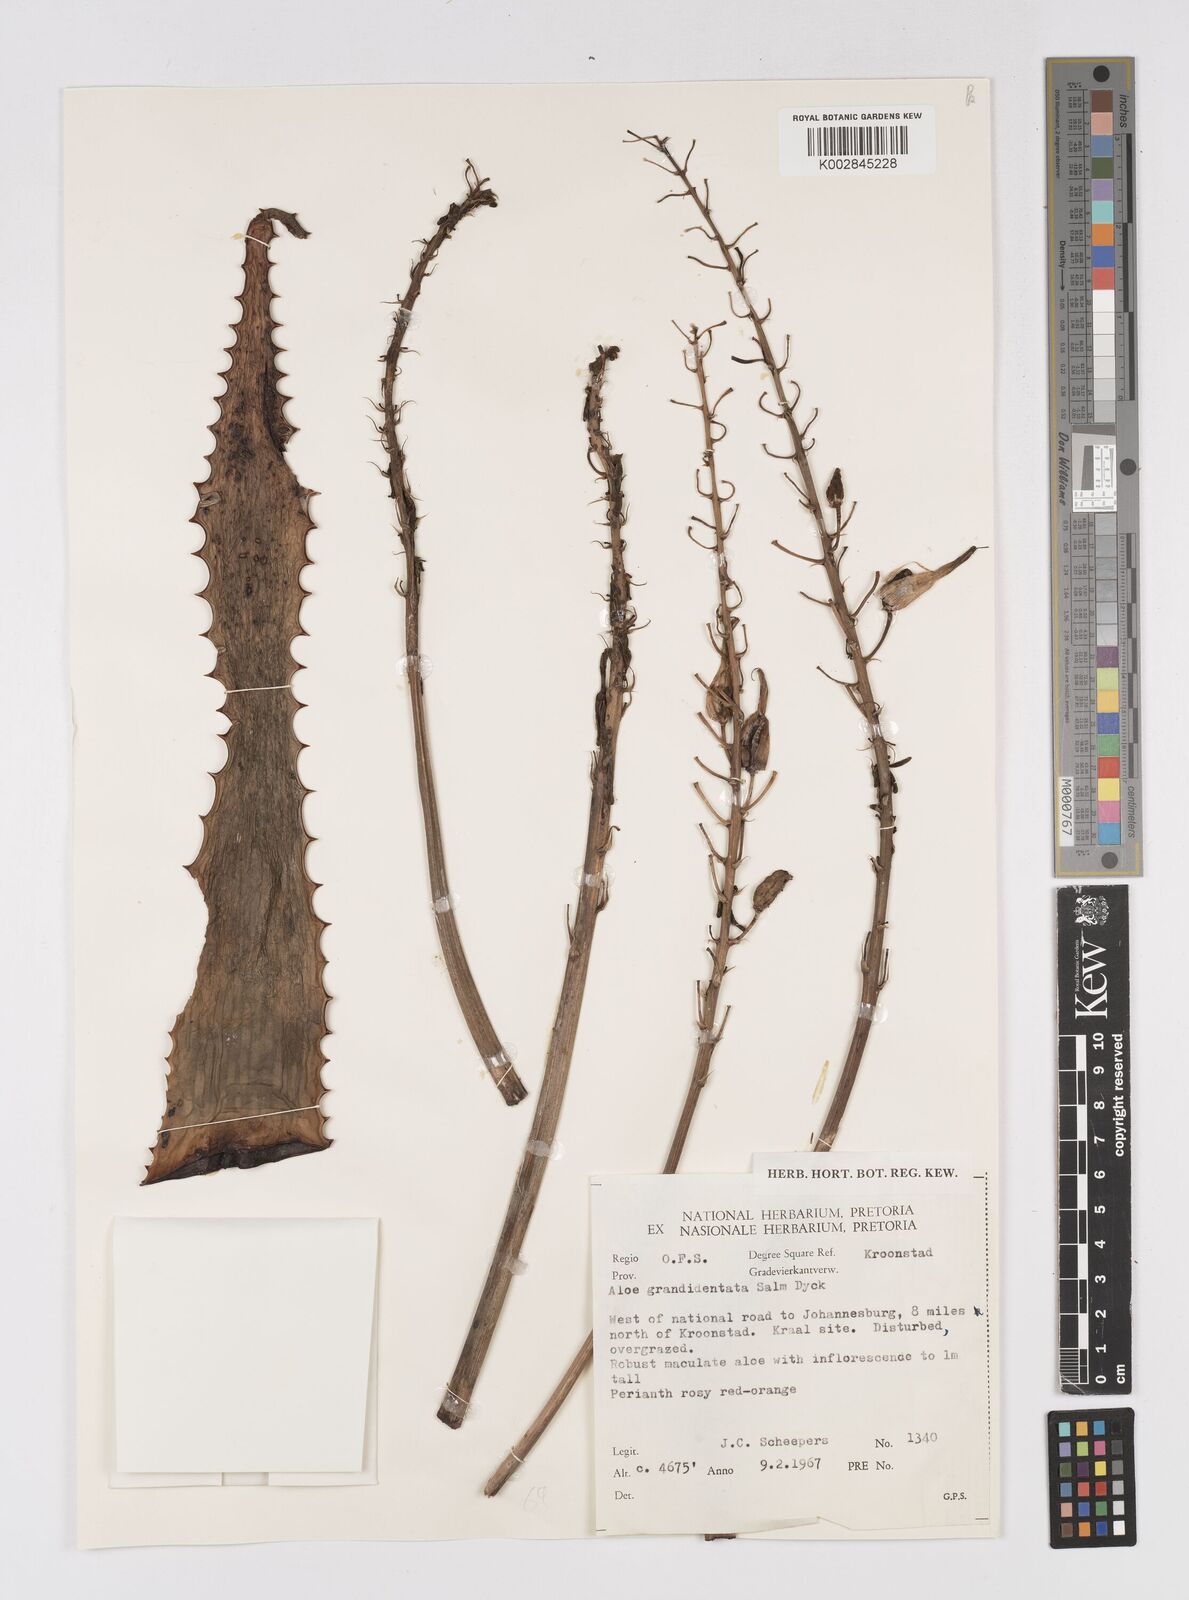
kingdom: Plantae
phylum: Tracheophyta
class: Liliopsida
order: Asparagales
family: Asphodelaceae
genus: Aloe
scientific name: Aloe grandidentata
